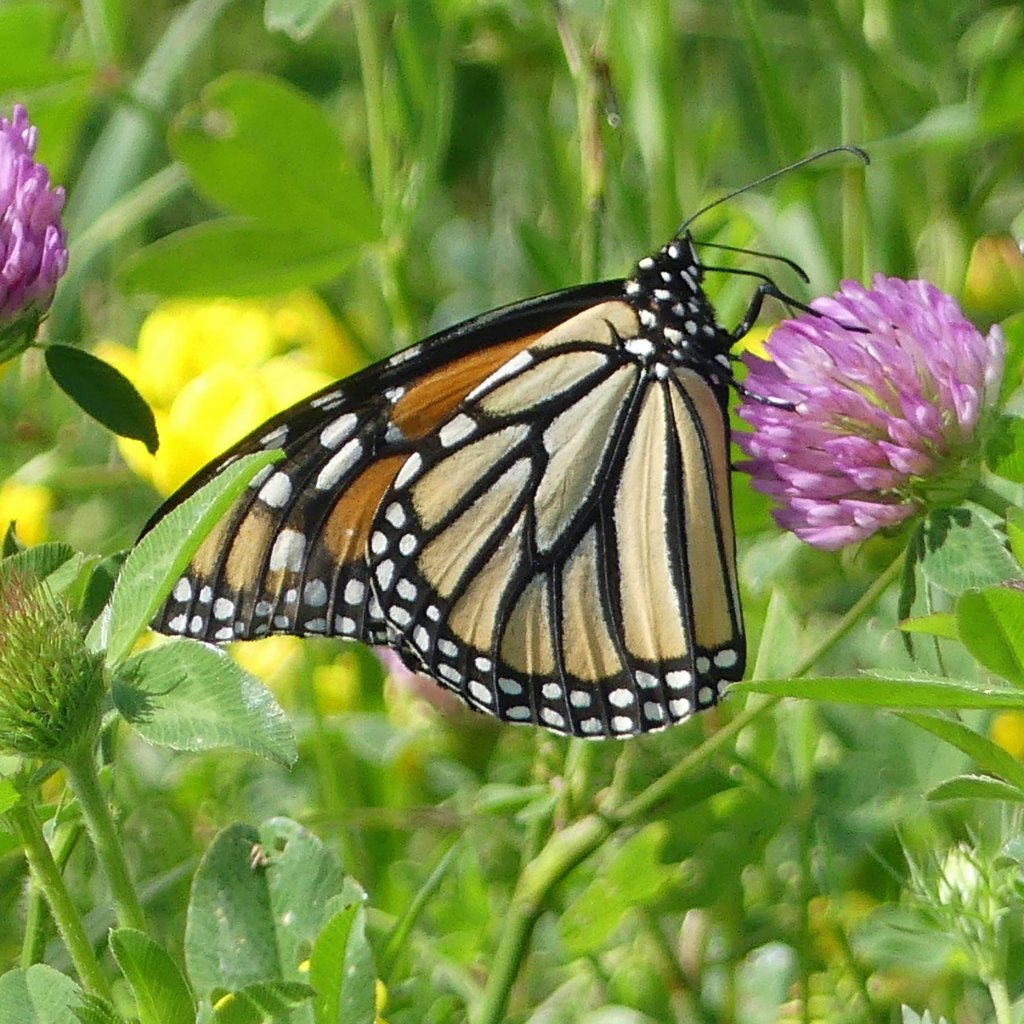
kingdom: Animalia
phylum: Arthropoda
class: Insecta
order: Lepidoptera
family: Nymphalidae
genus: Danaus
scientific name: Danaus plexippus
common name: Monarch
